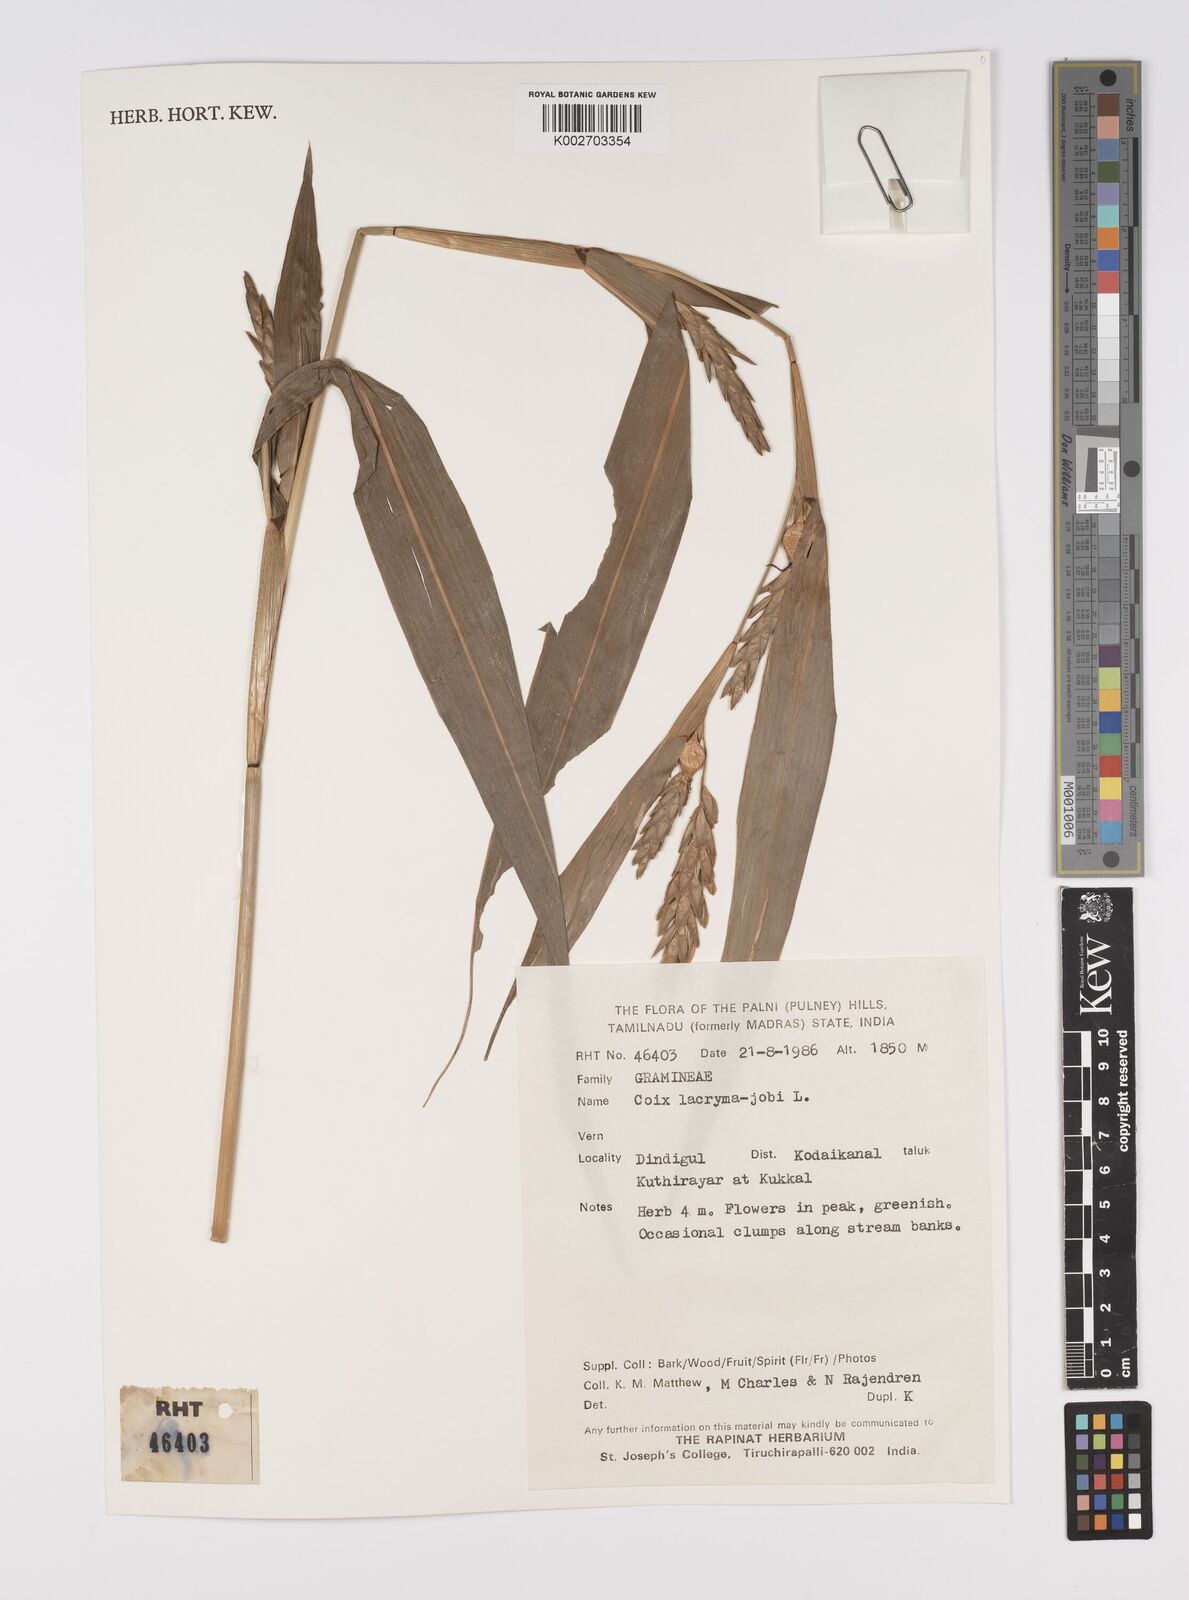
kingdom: Plantae
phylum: Tracheophyta
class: Liliopsida
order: Poales
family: Poaceae
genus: Coix
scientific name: Coix lacryma-jobi
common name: Job's tears
